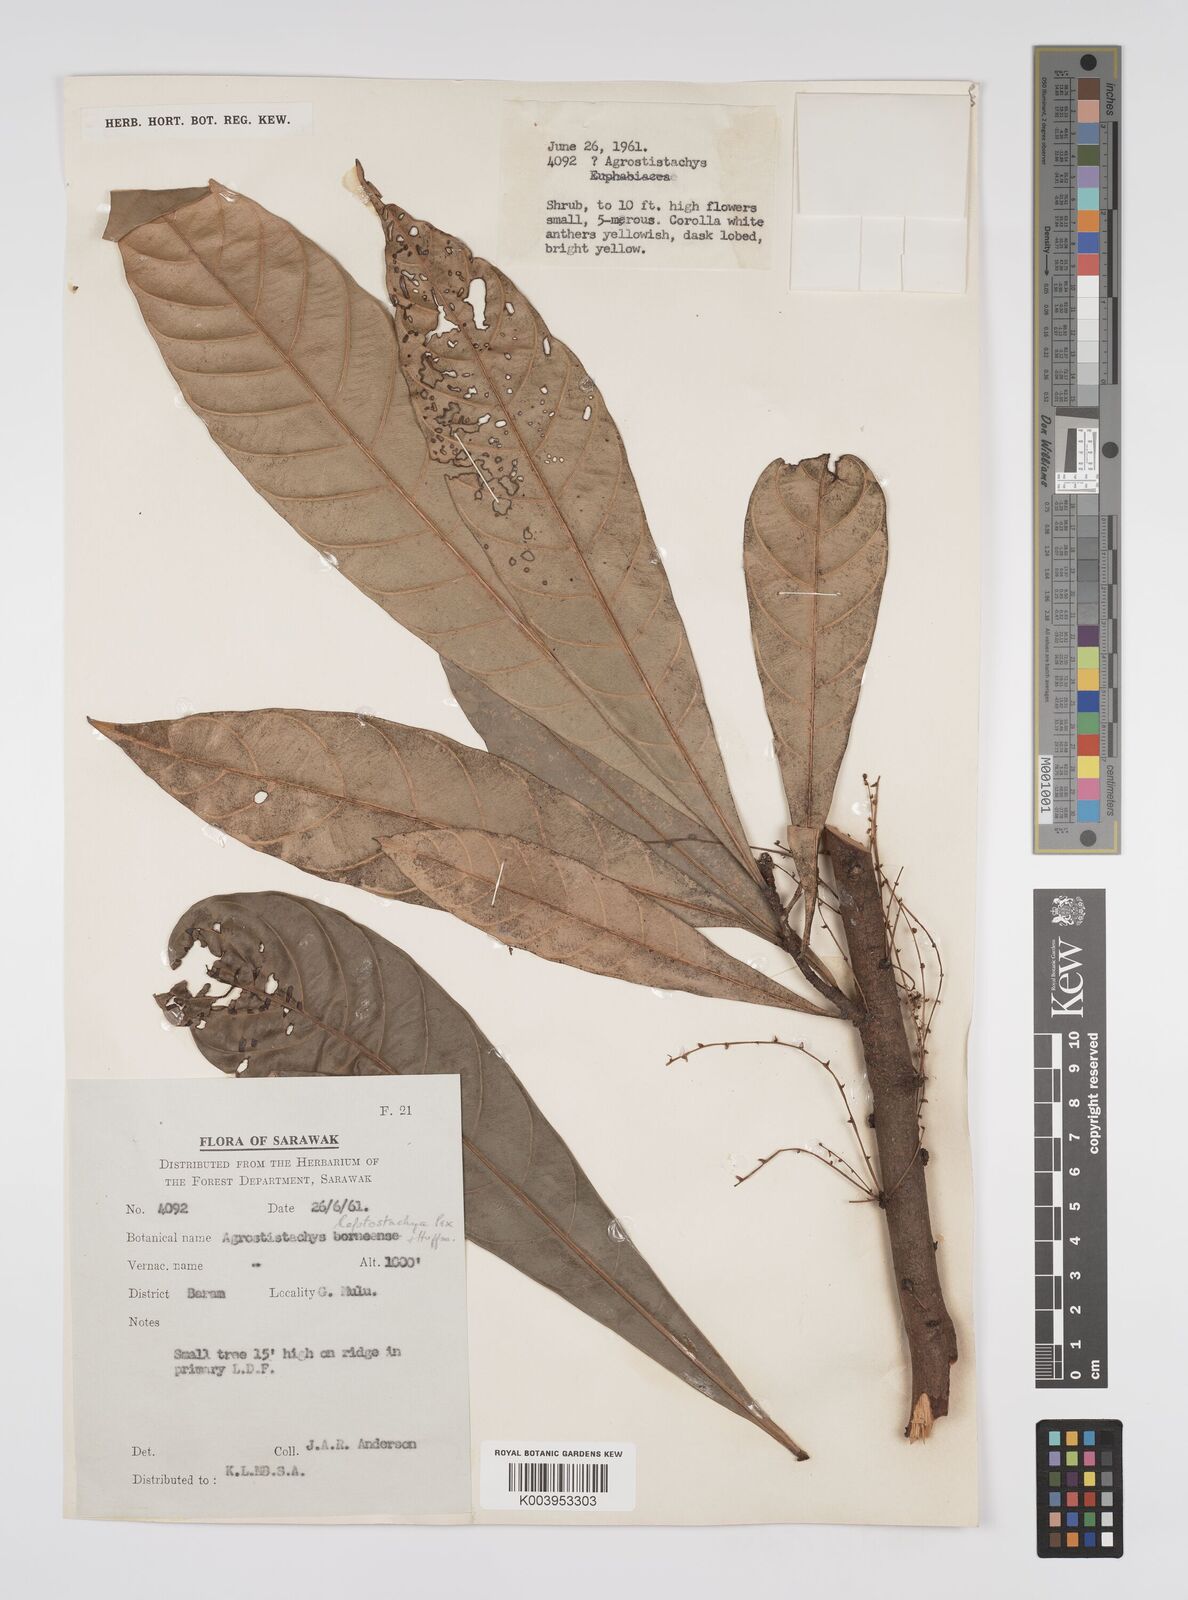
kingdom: Plantae
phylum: Tracheophyta
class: Magnoliopsida
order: Malpighiales
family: Euphorbiaceae
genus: Agrostistachys
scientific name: Agrostistachys borneensis
